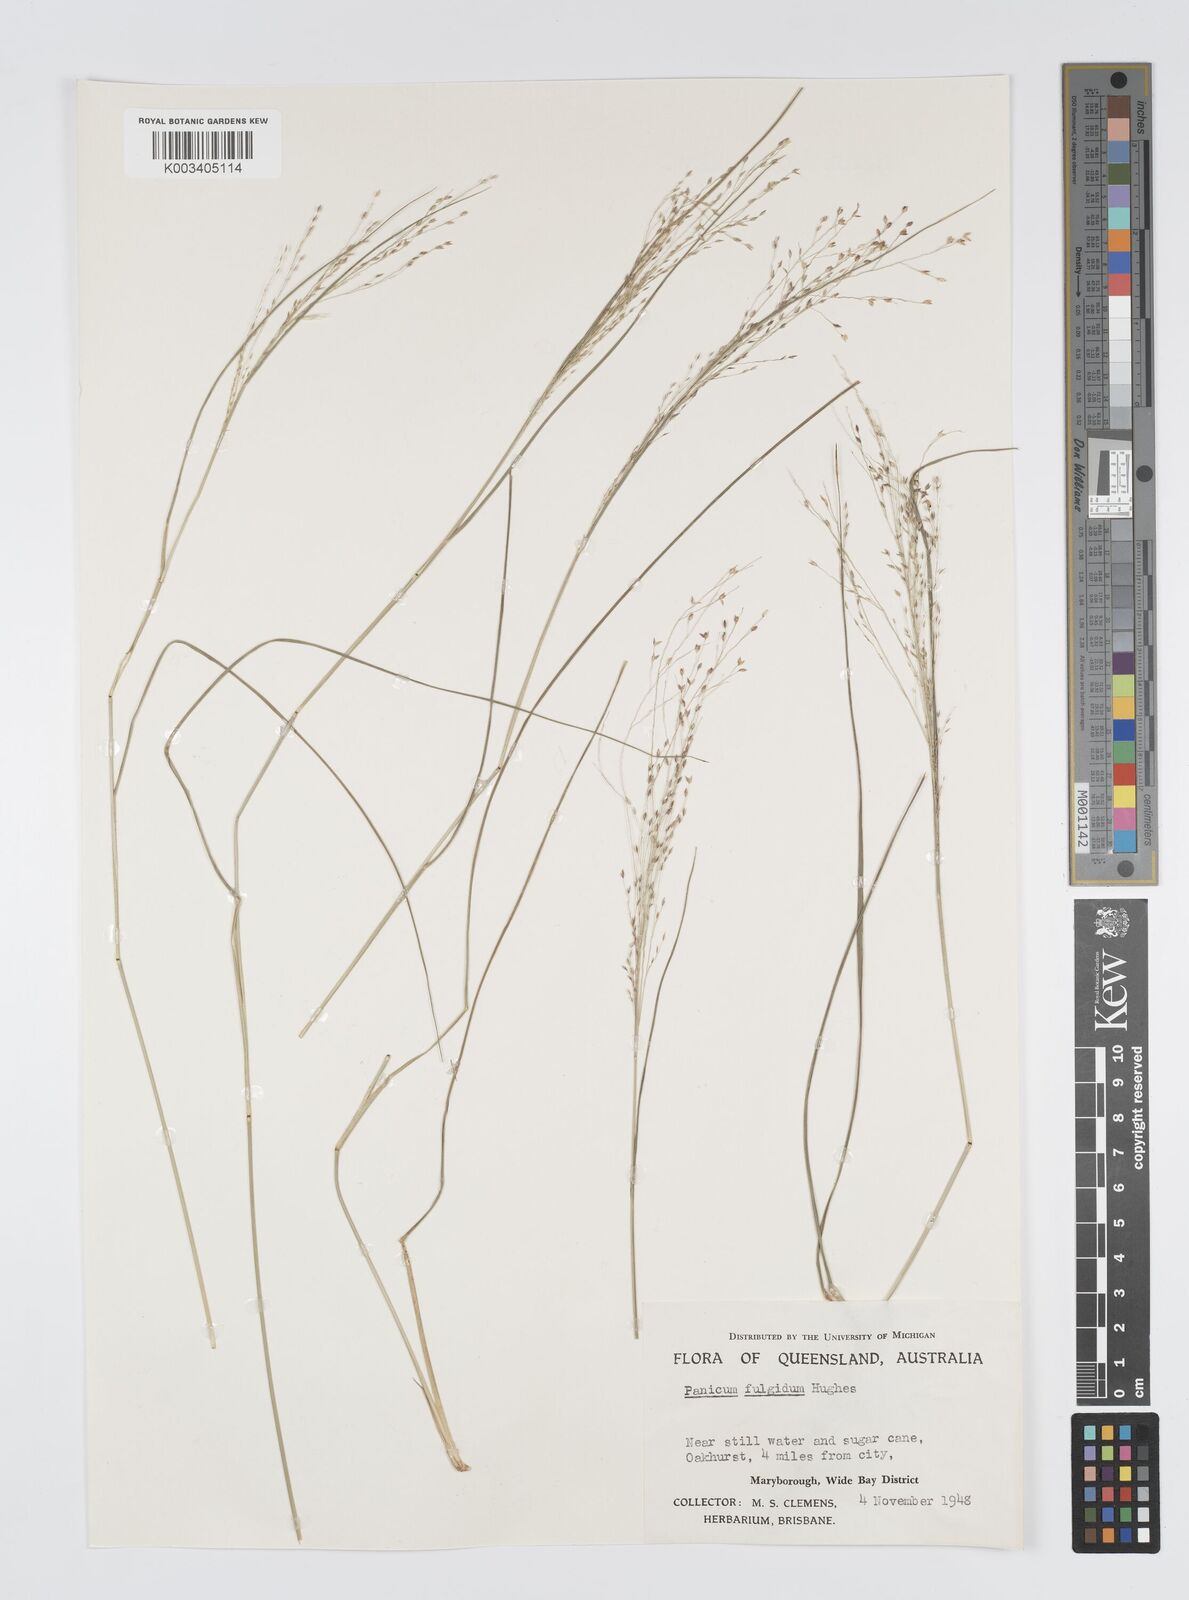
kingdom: Plantae
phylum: Tracheophyta
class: Liliopsida
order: Poales
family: Poaceae
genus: Panicum
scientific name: Panicum simile
